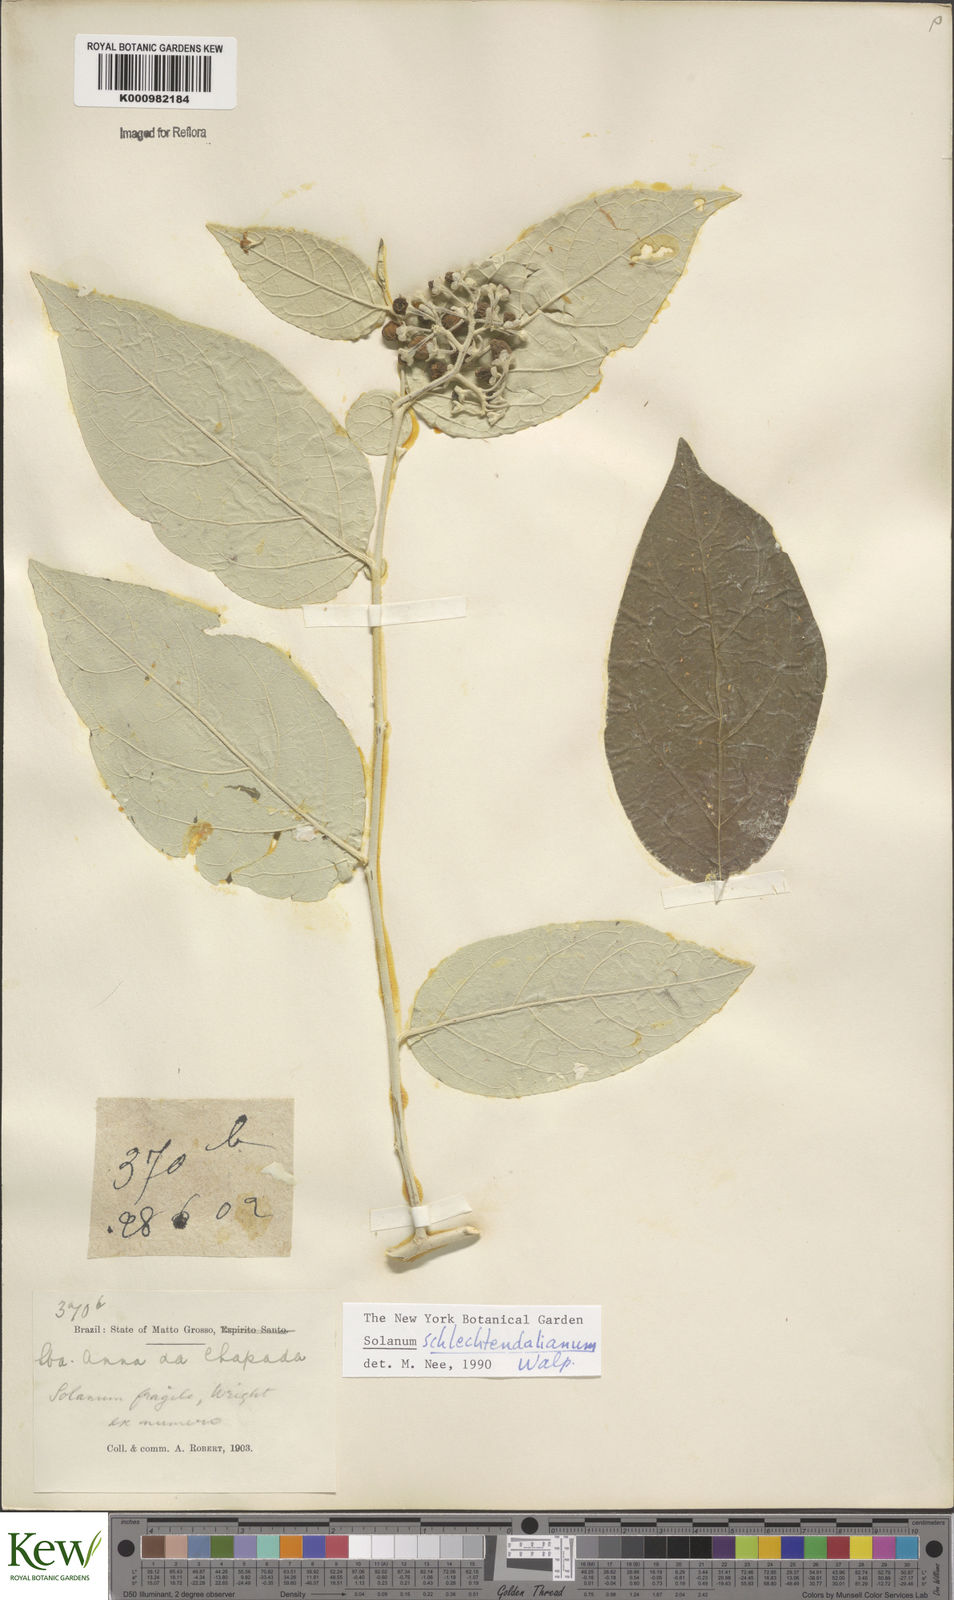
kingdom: Plantae
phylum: Tracheophyta
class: Magnoliopsida
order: Solanales
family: Solanaceae
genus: Solanum
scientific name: Solanum schlechtendalianum
